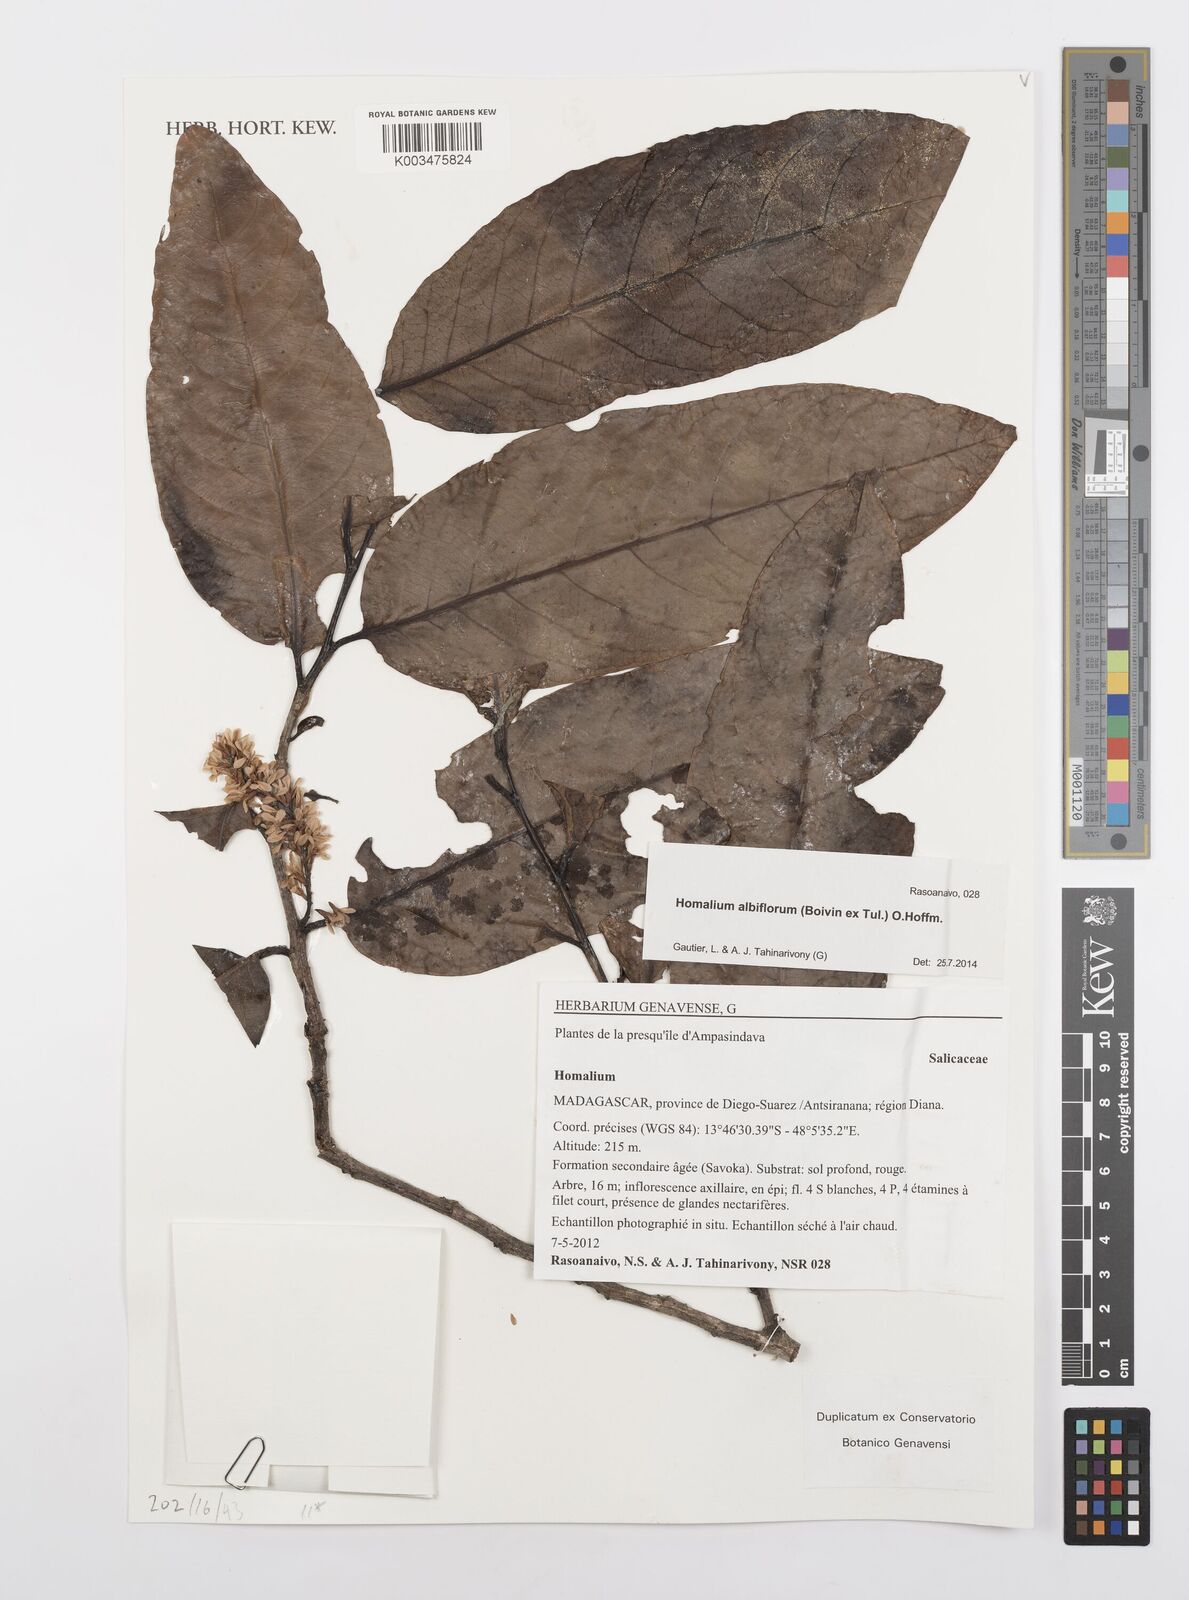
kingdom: Plantae
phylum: Tracheophyta
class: Magnoliopsida
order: Malpighiales
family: Salicaceae
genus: Homalium
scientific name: Homalium albiflorum
